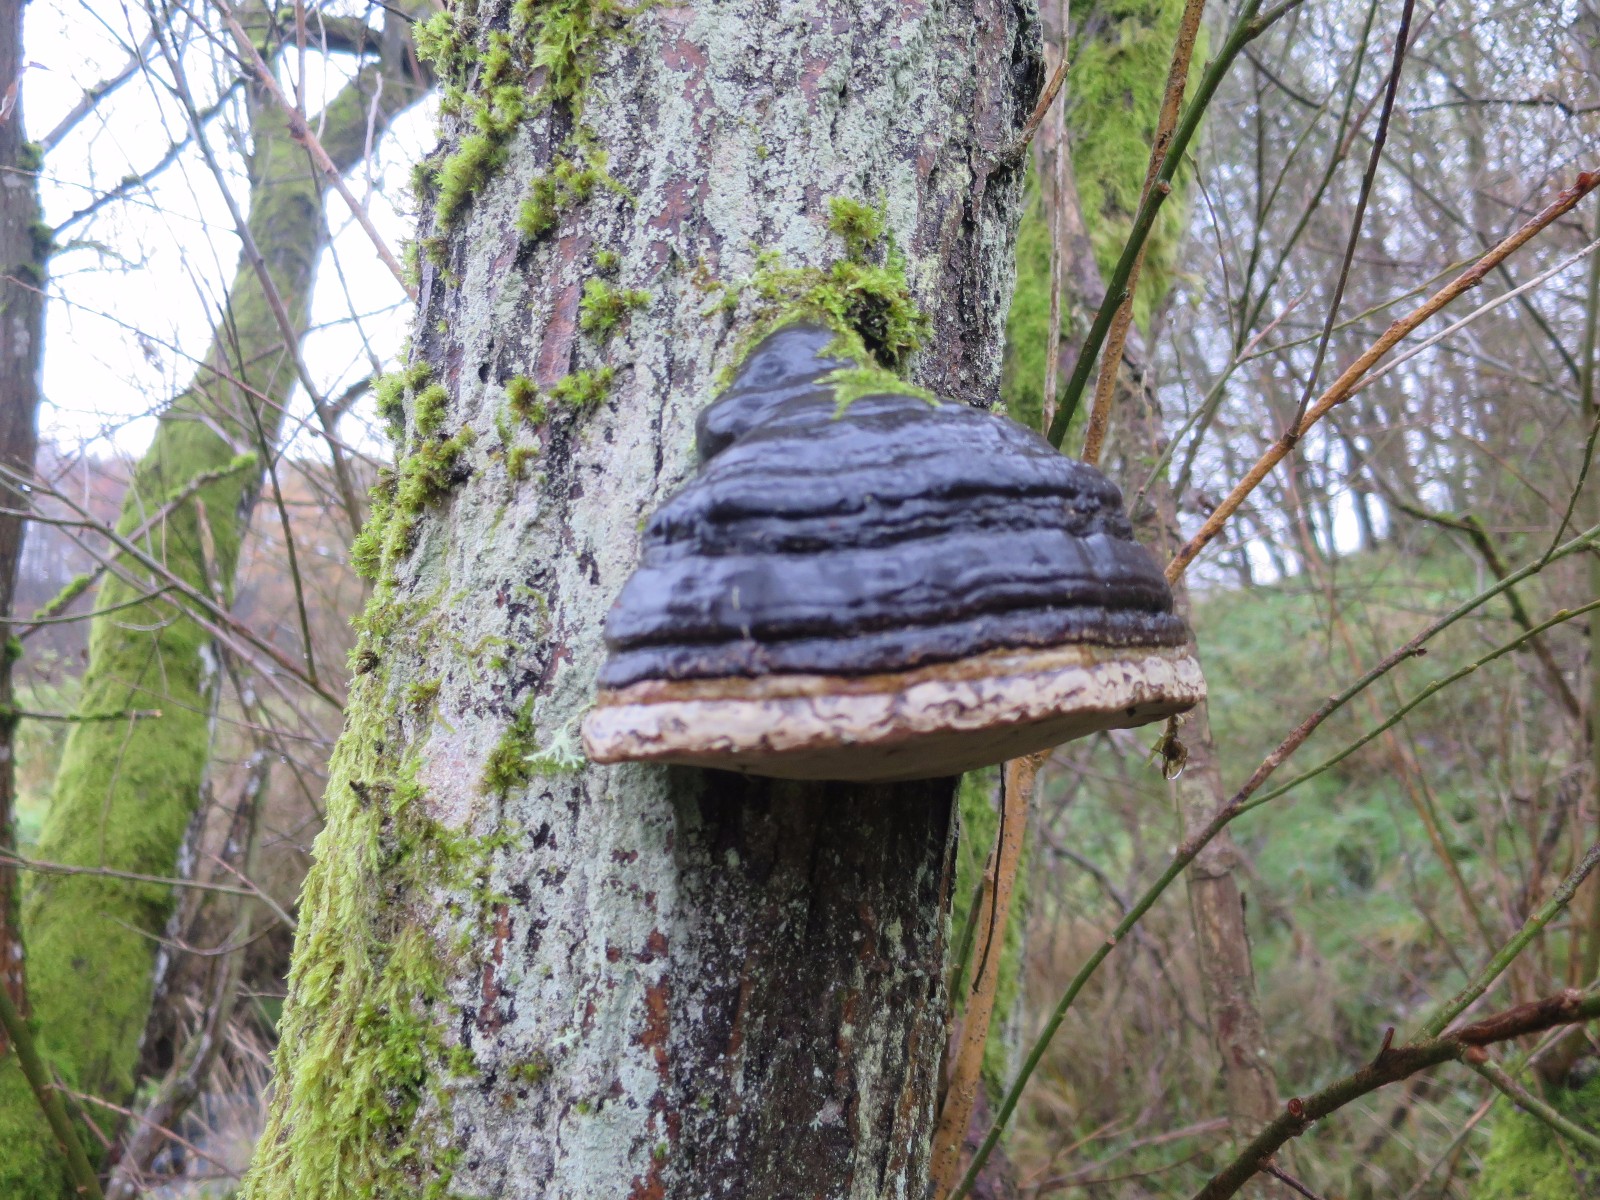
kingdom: Fungi
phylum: Basidiomycota
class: Agaricomycetes
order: Polyporales
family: Polyporaceae
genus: Fomes
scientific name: Fomes fomentarius
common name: tøndersvamp
